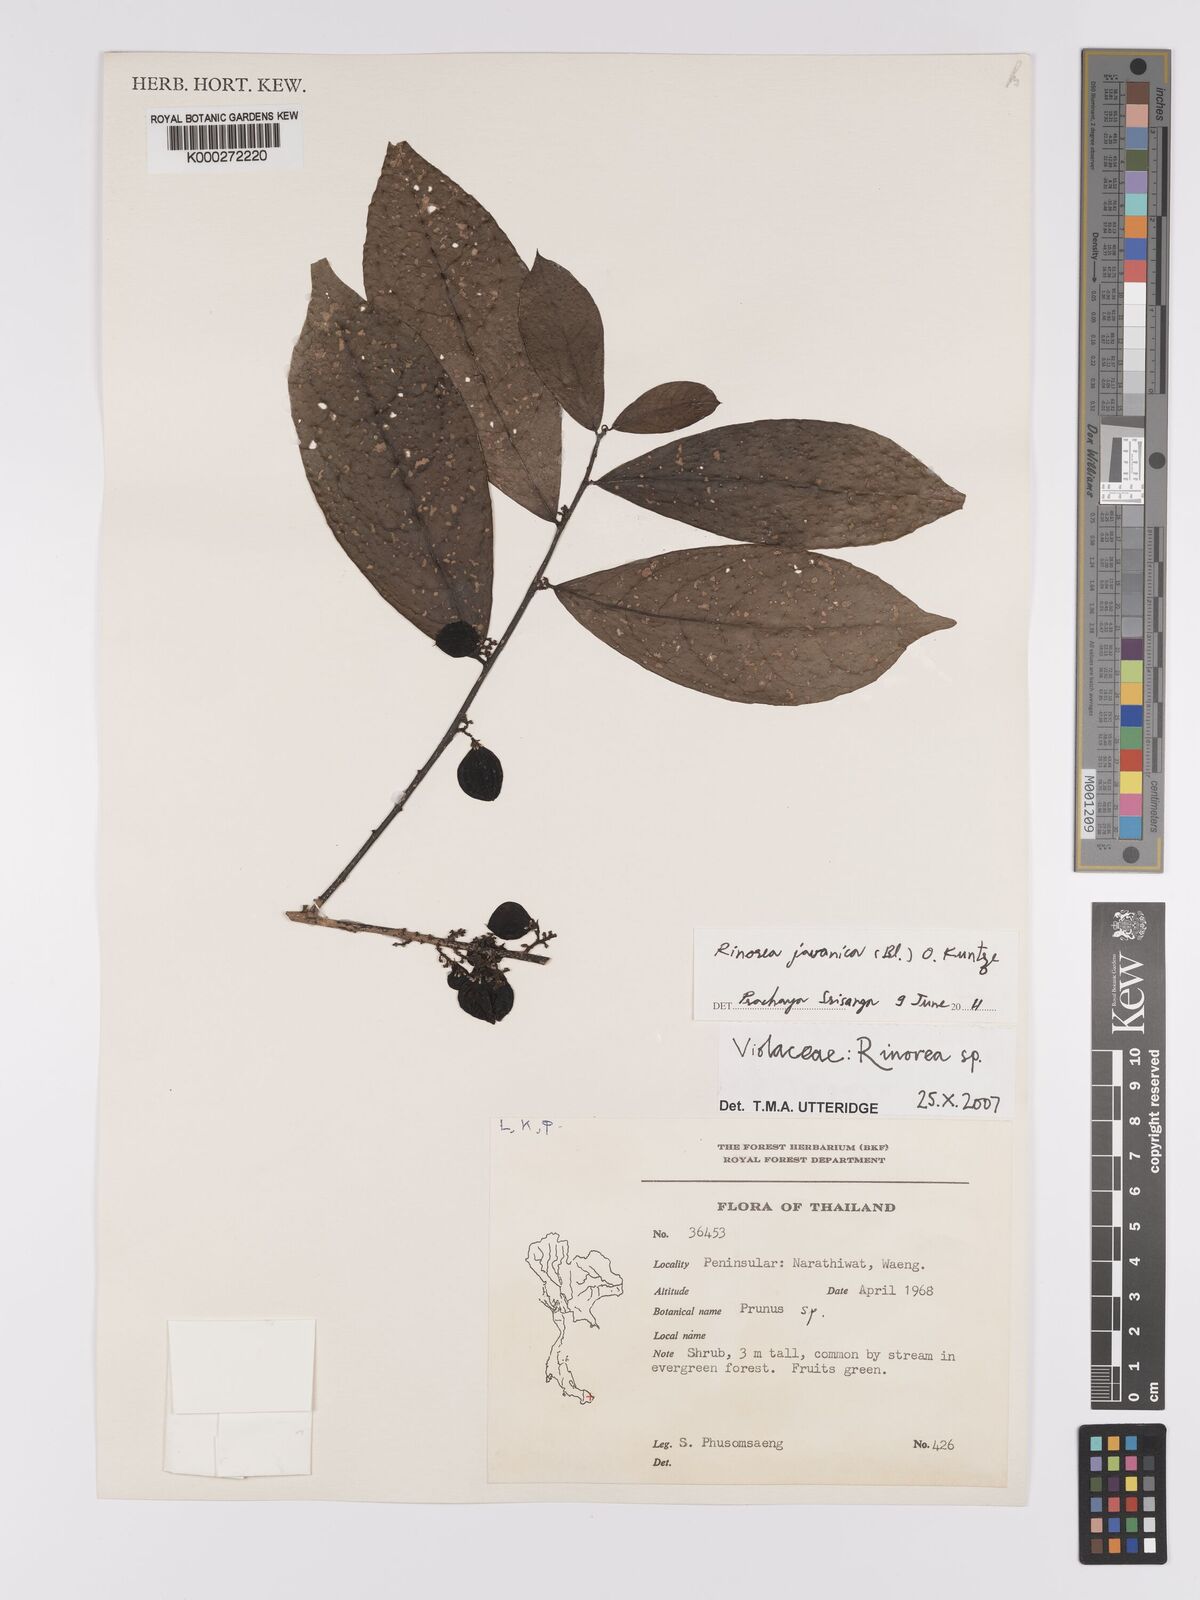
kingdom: Plantae
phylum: Tracheophyta
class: Magnoliopsida
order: Malpighiales
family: Violaceae
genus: Rinorea
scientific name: Rinorea
